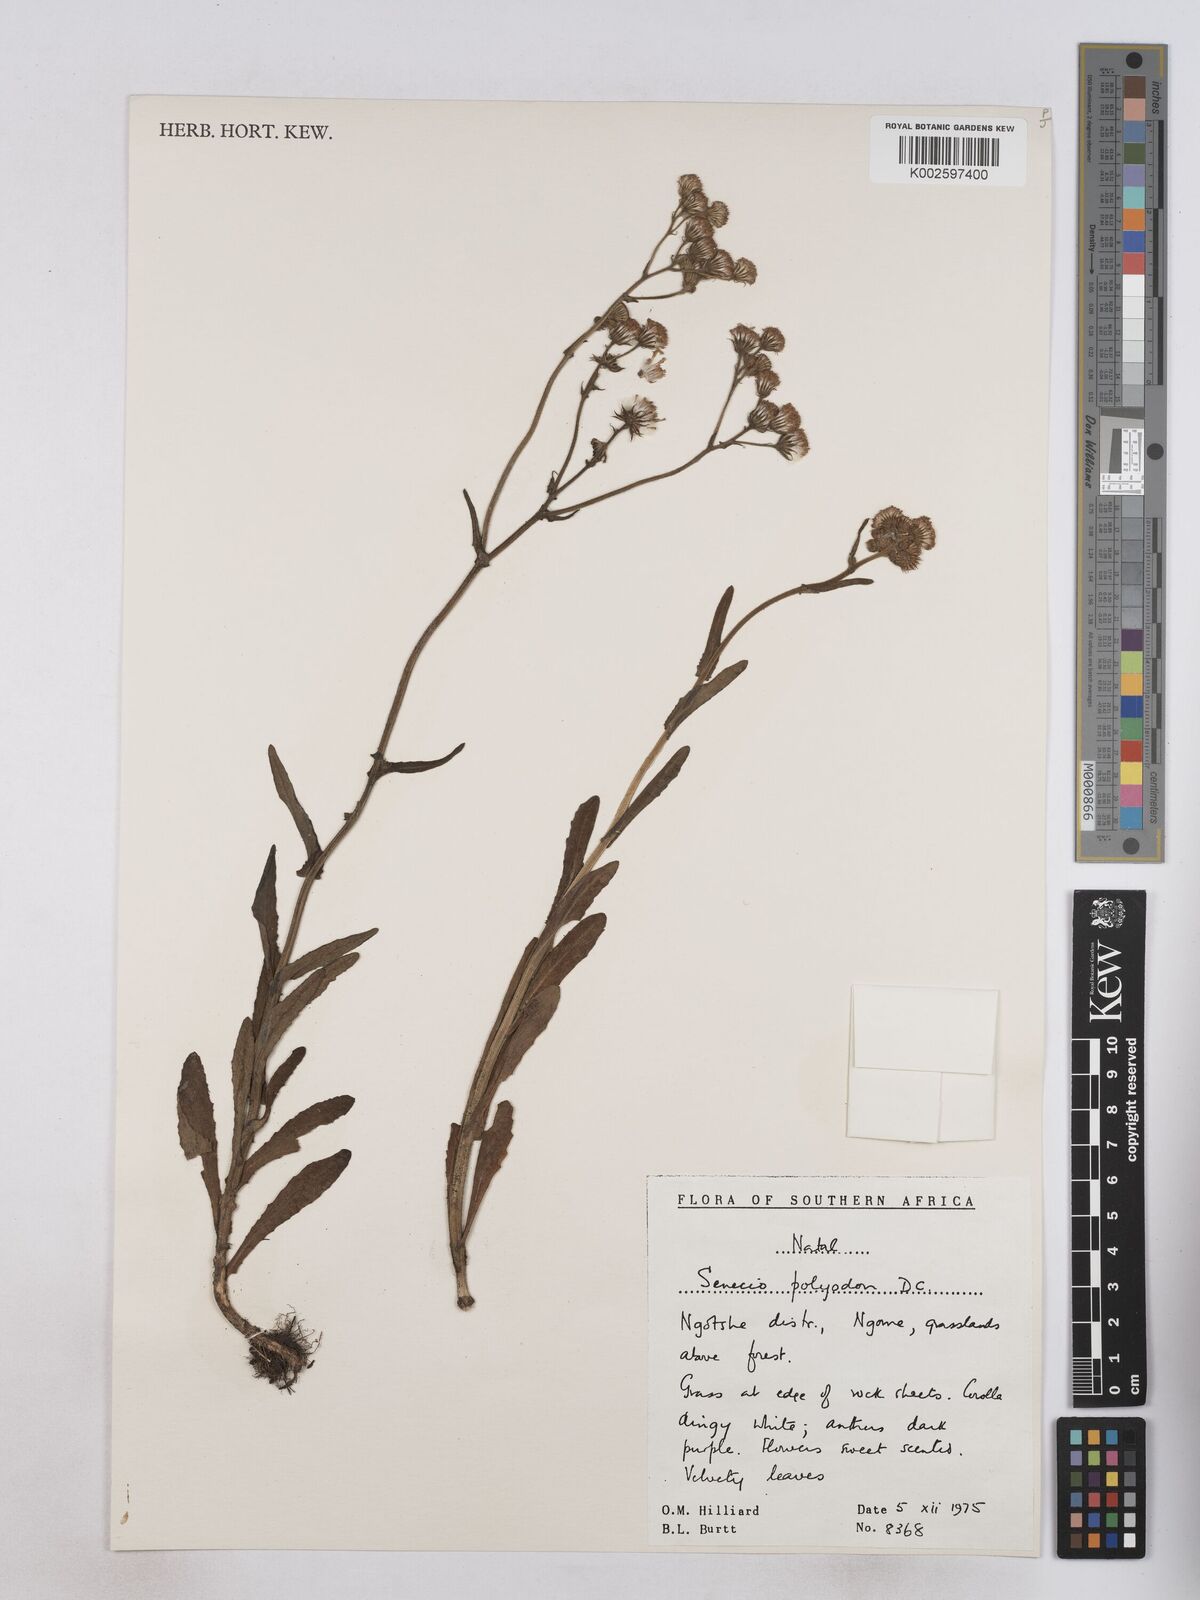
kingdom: Plantae
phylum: Tracheophyta
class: Magnoliopsida
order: Asterales
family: Asteraceae
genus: Senecio
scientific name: Senecio polyodon
